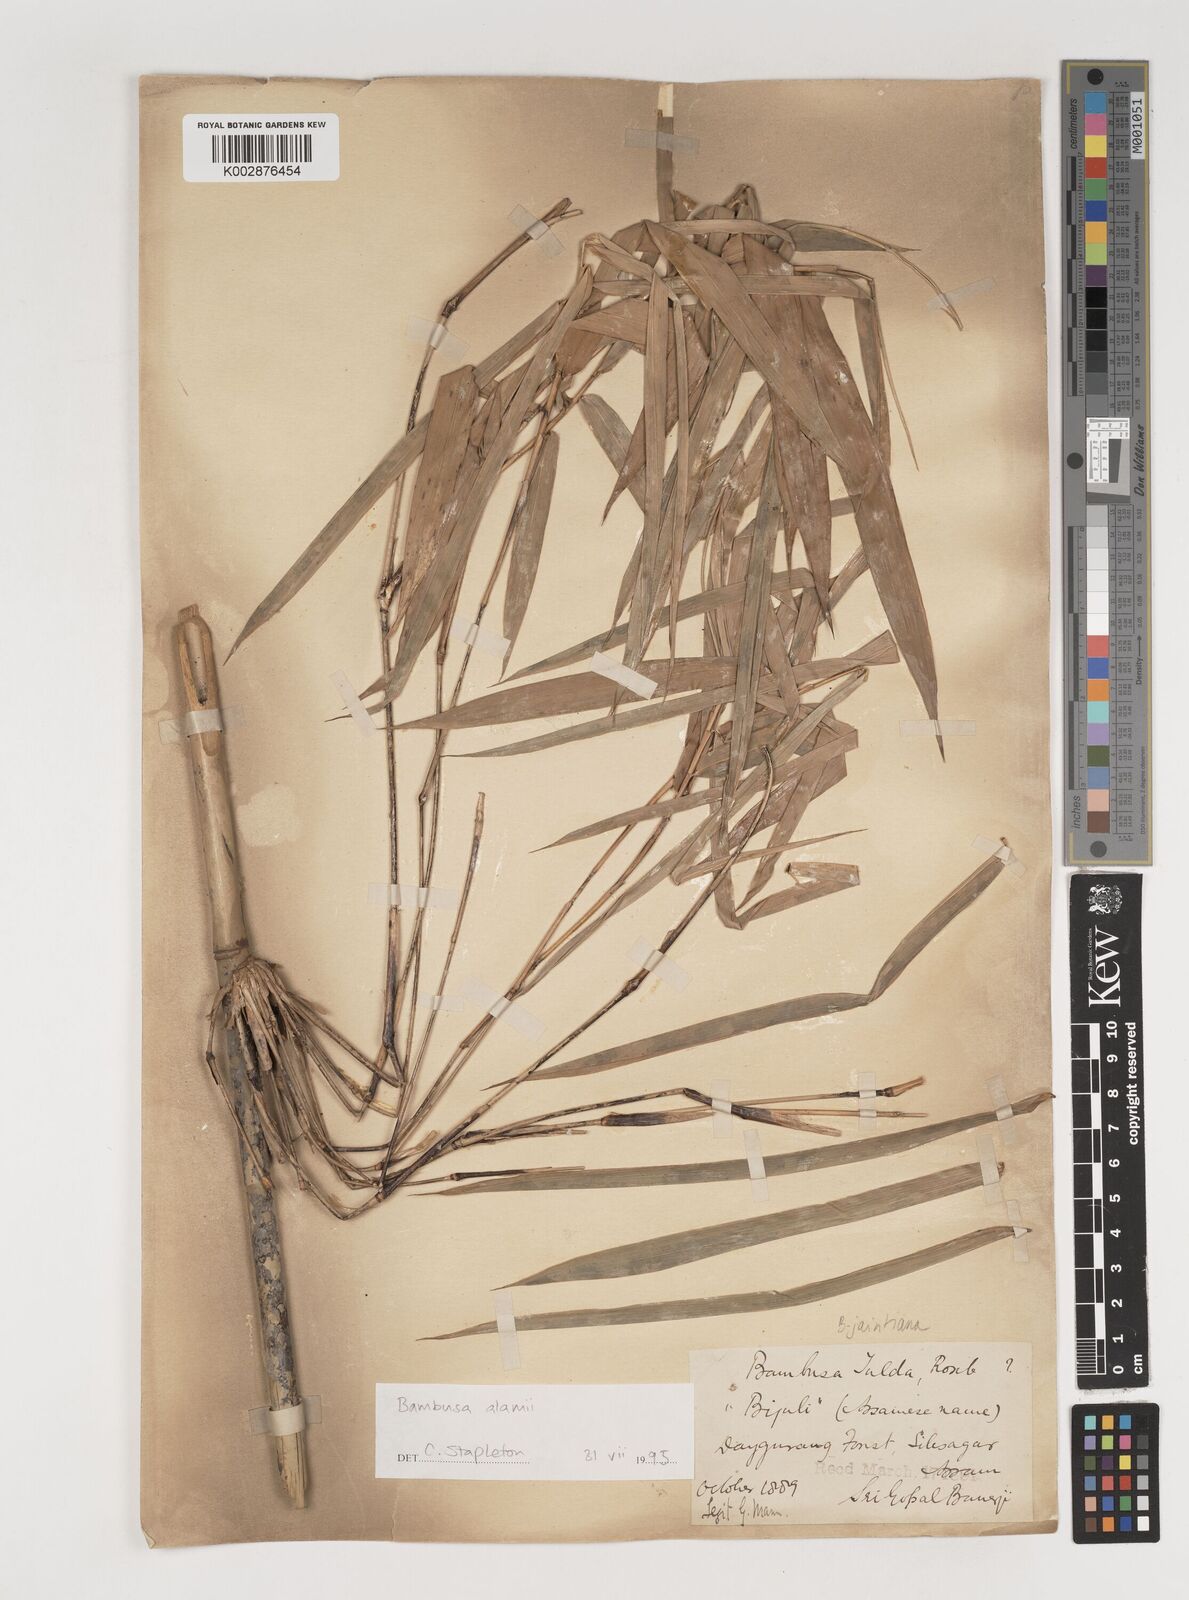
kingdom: Plantae
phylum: Tracheophyta
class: Liliopsida
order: Poales
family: Poaceae
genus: Bambusa
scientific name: Bambusa jaintiana
